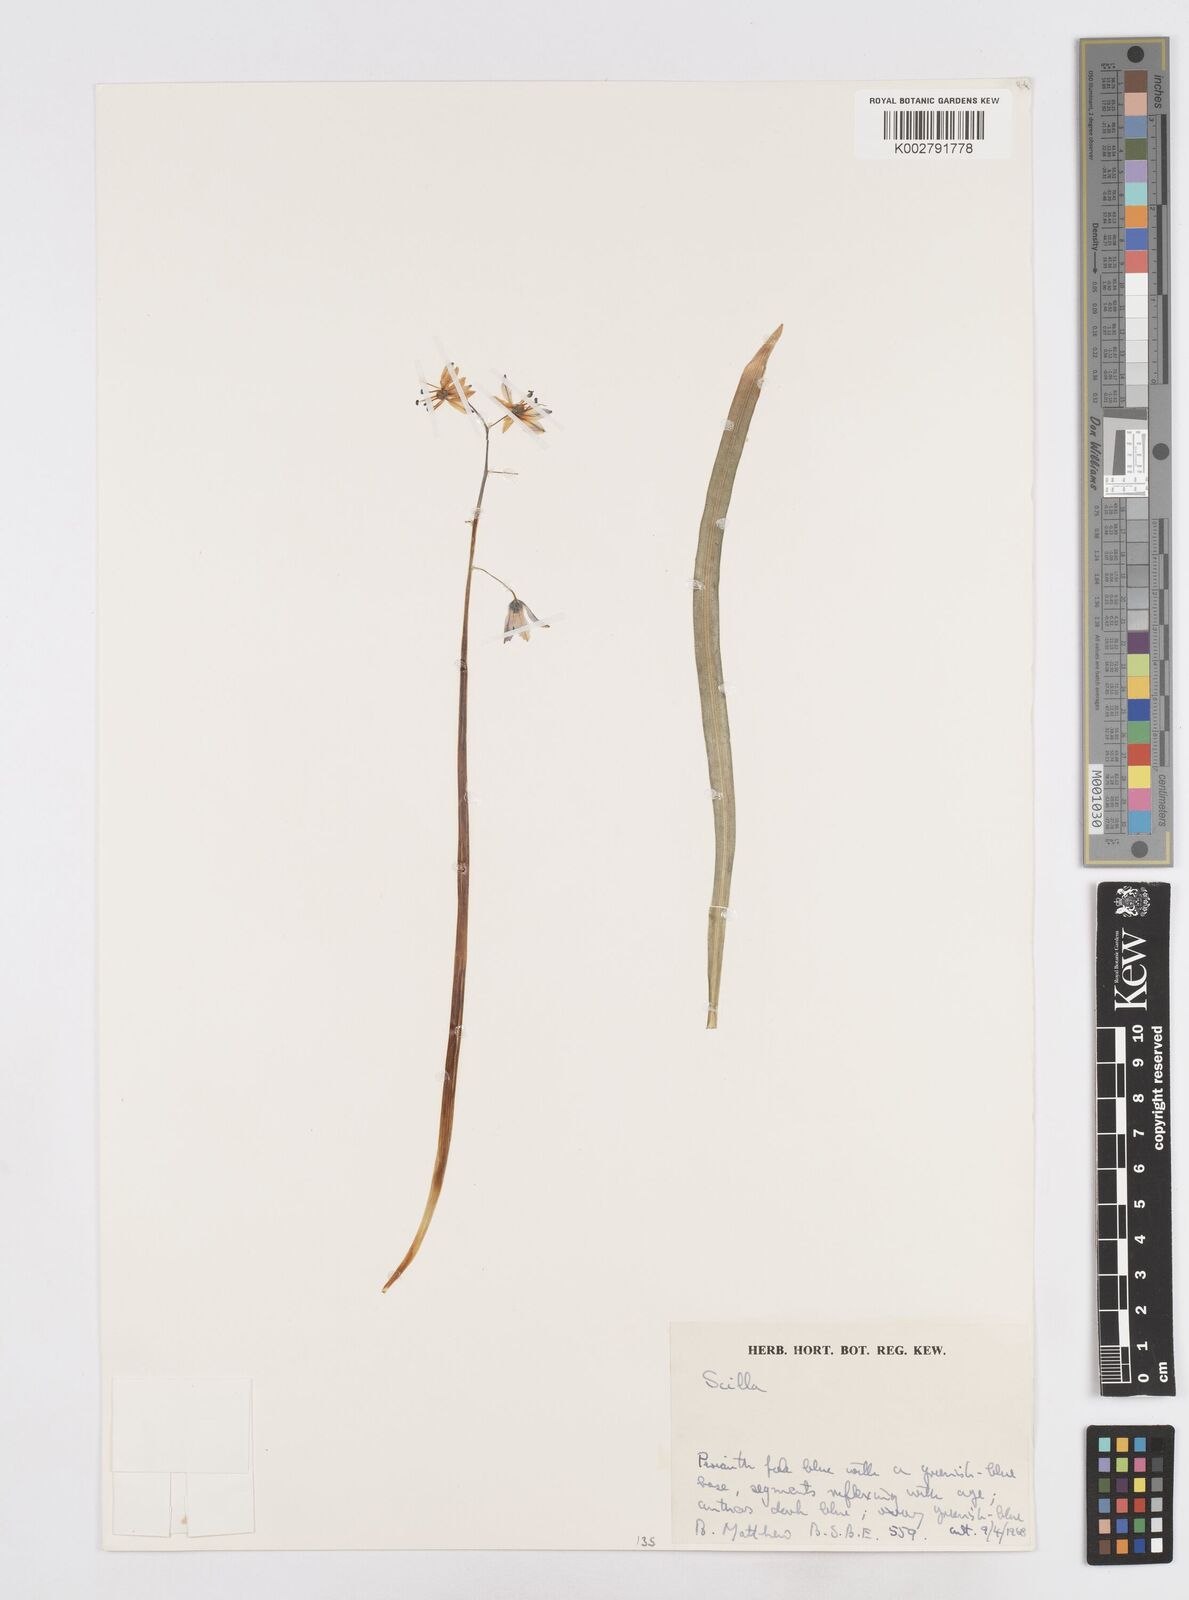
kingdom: Plantae
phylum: Tracheophyta
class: Liliopsida
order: Asparagales
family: Asparagaceae
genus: Scilla
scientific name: Scilla
